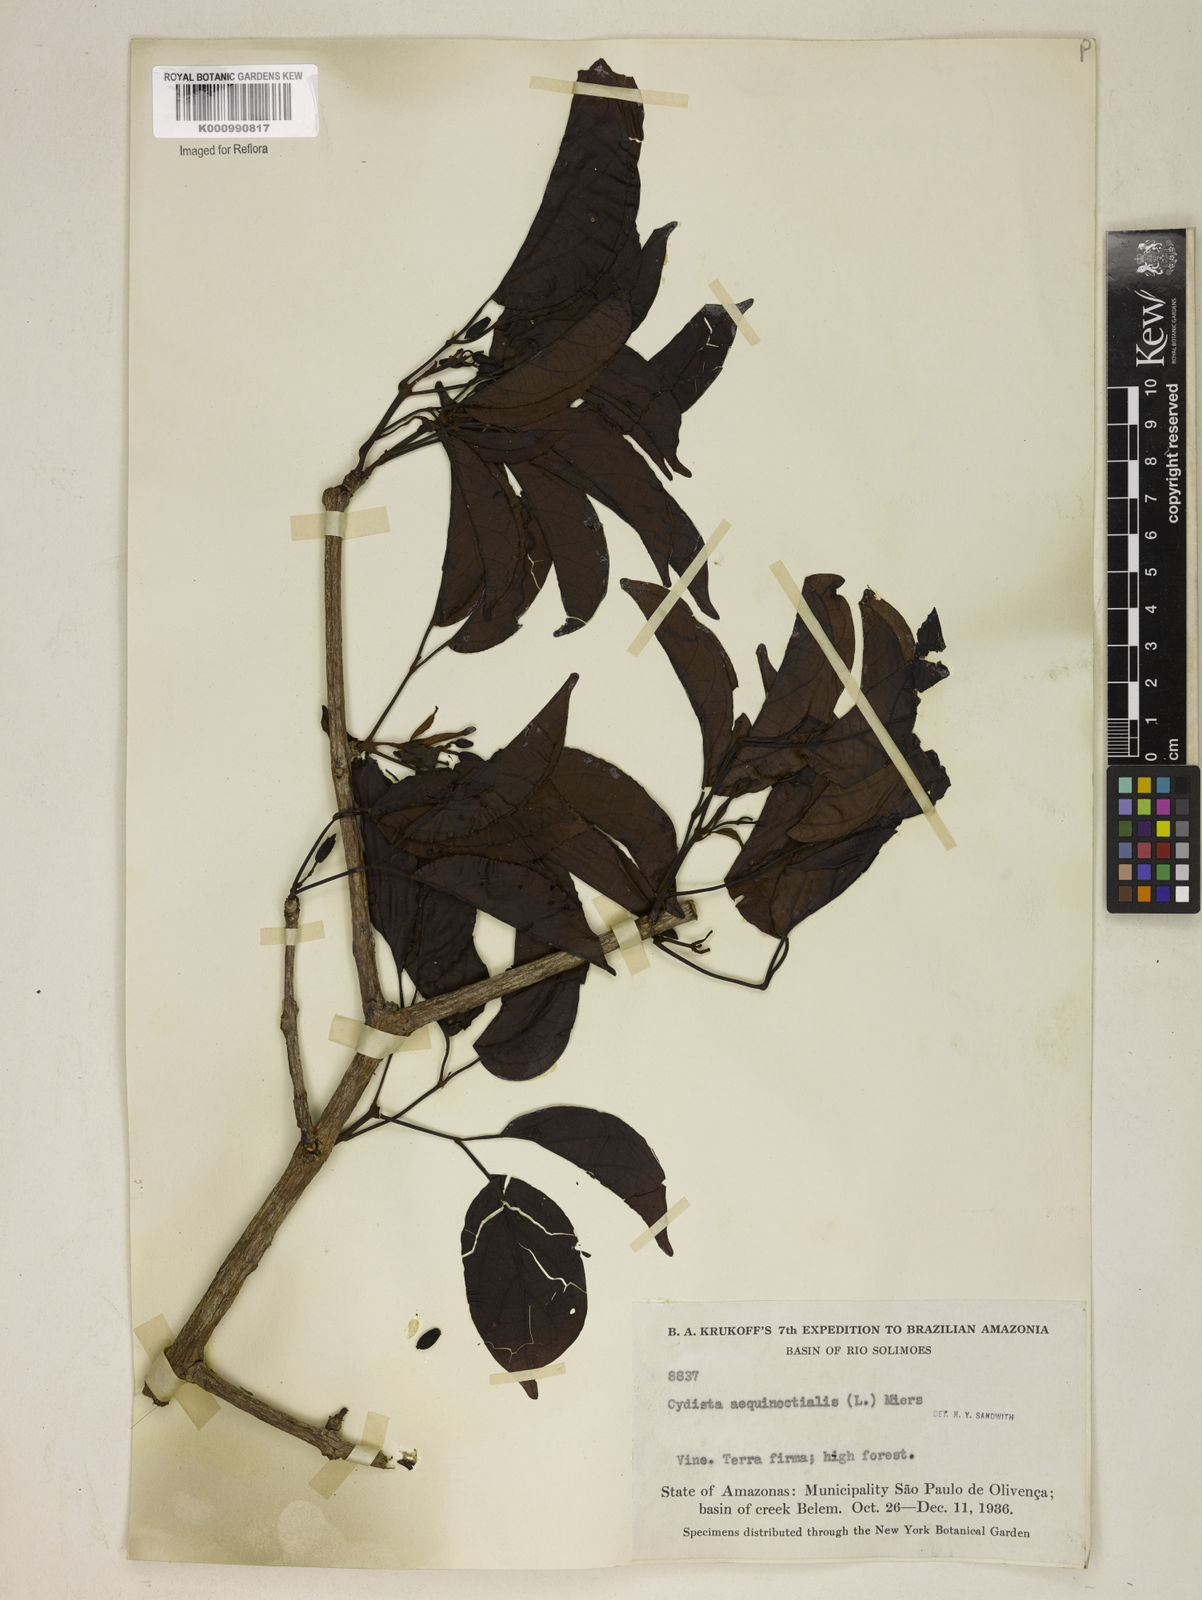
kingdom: Plantae
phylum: Tracheophyta
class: Magnoliopsida
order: Lamiales
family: Bignoniaceae
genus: Bignonia
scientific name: Bignonia aequinoctialis
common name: Garlicvine
